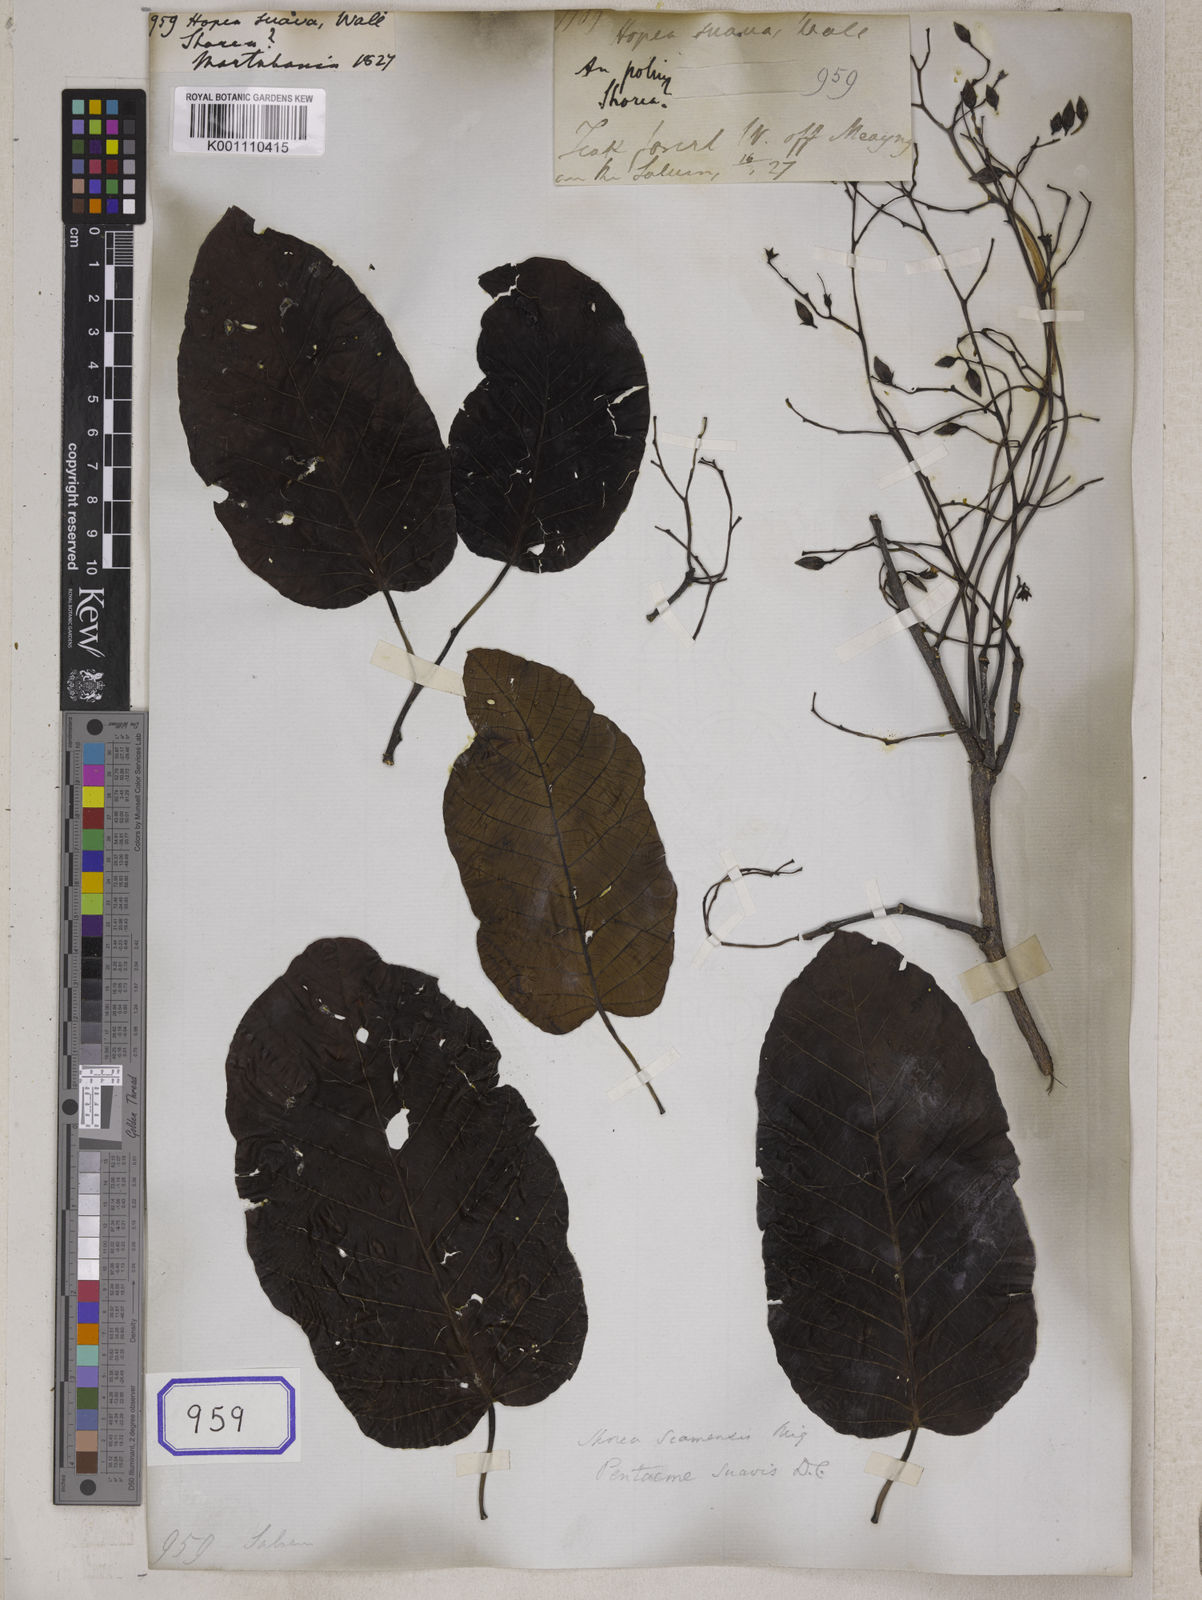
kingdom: Plantae
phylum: Tracheophyta
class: Magnoliopsida
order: Malvales
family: Dipterocarpaceae
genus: Pentacme
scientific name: Pentacme siamensis
